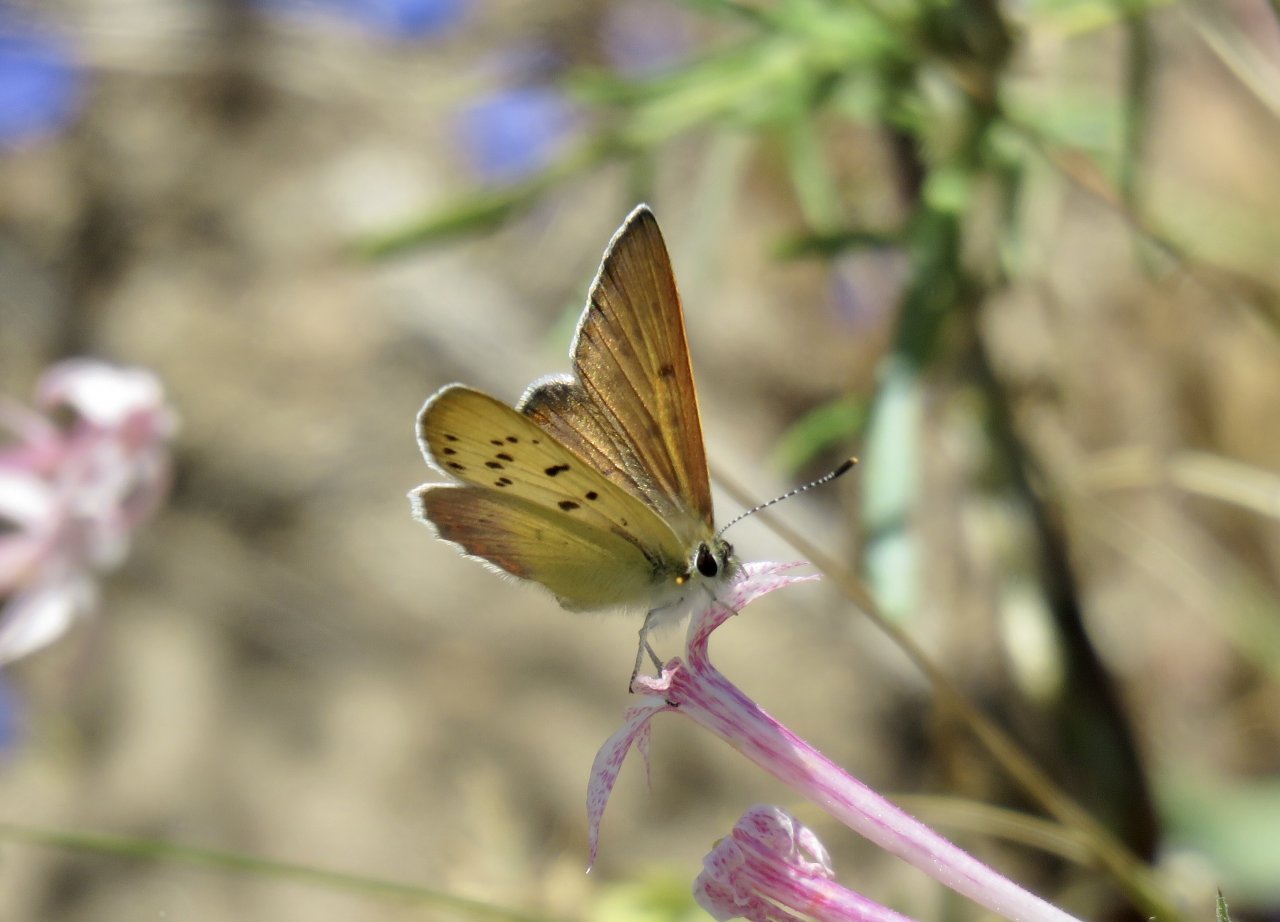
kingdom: Animalia
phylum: Arthropoda
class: Insecta
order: Lepidoptera
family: Lycaenidae
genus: Lycaena
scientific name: Lycaena nivalis
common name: Lilac-bordered Copper
